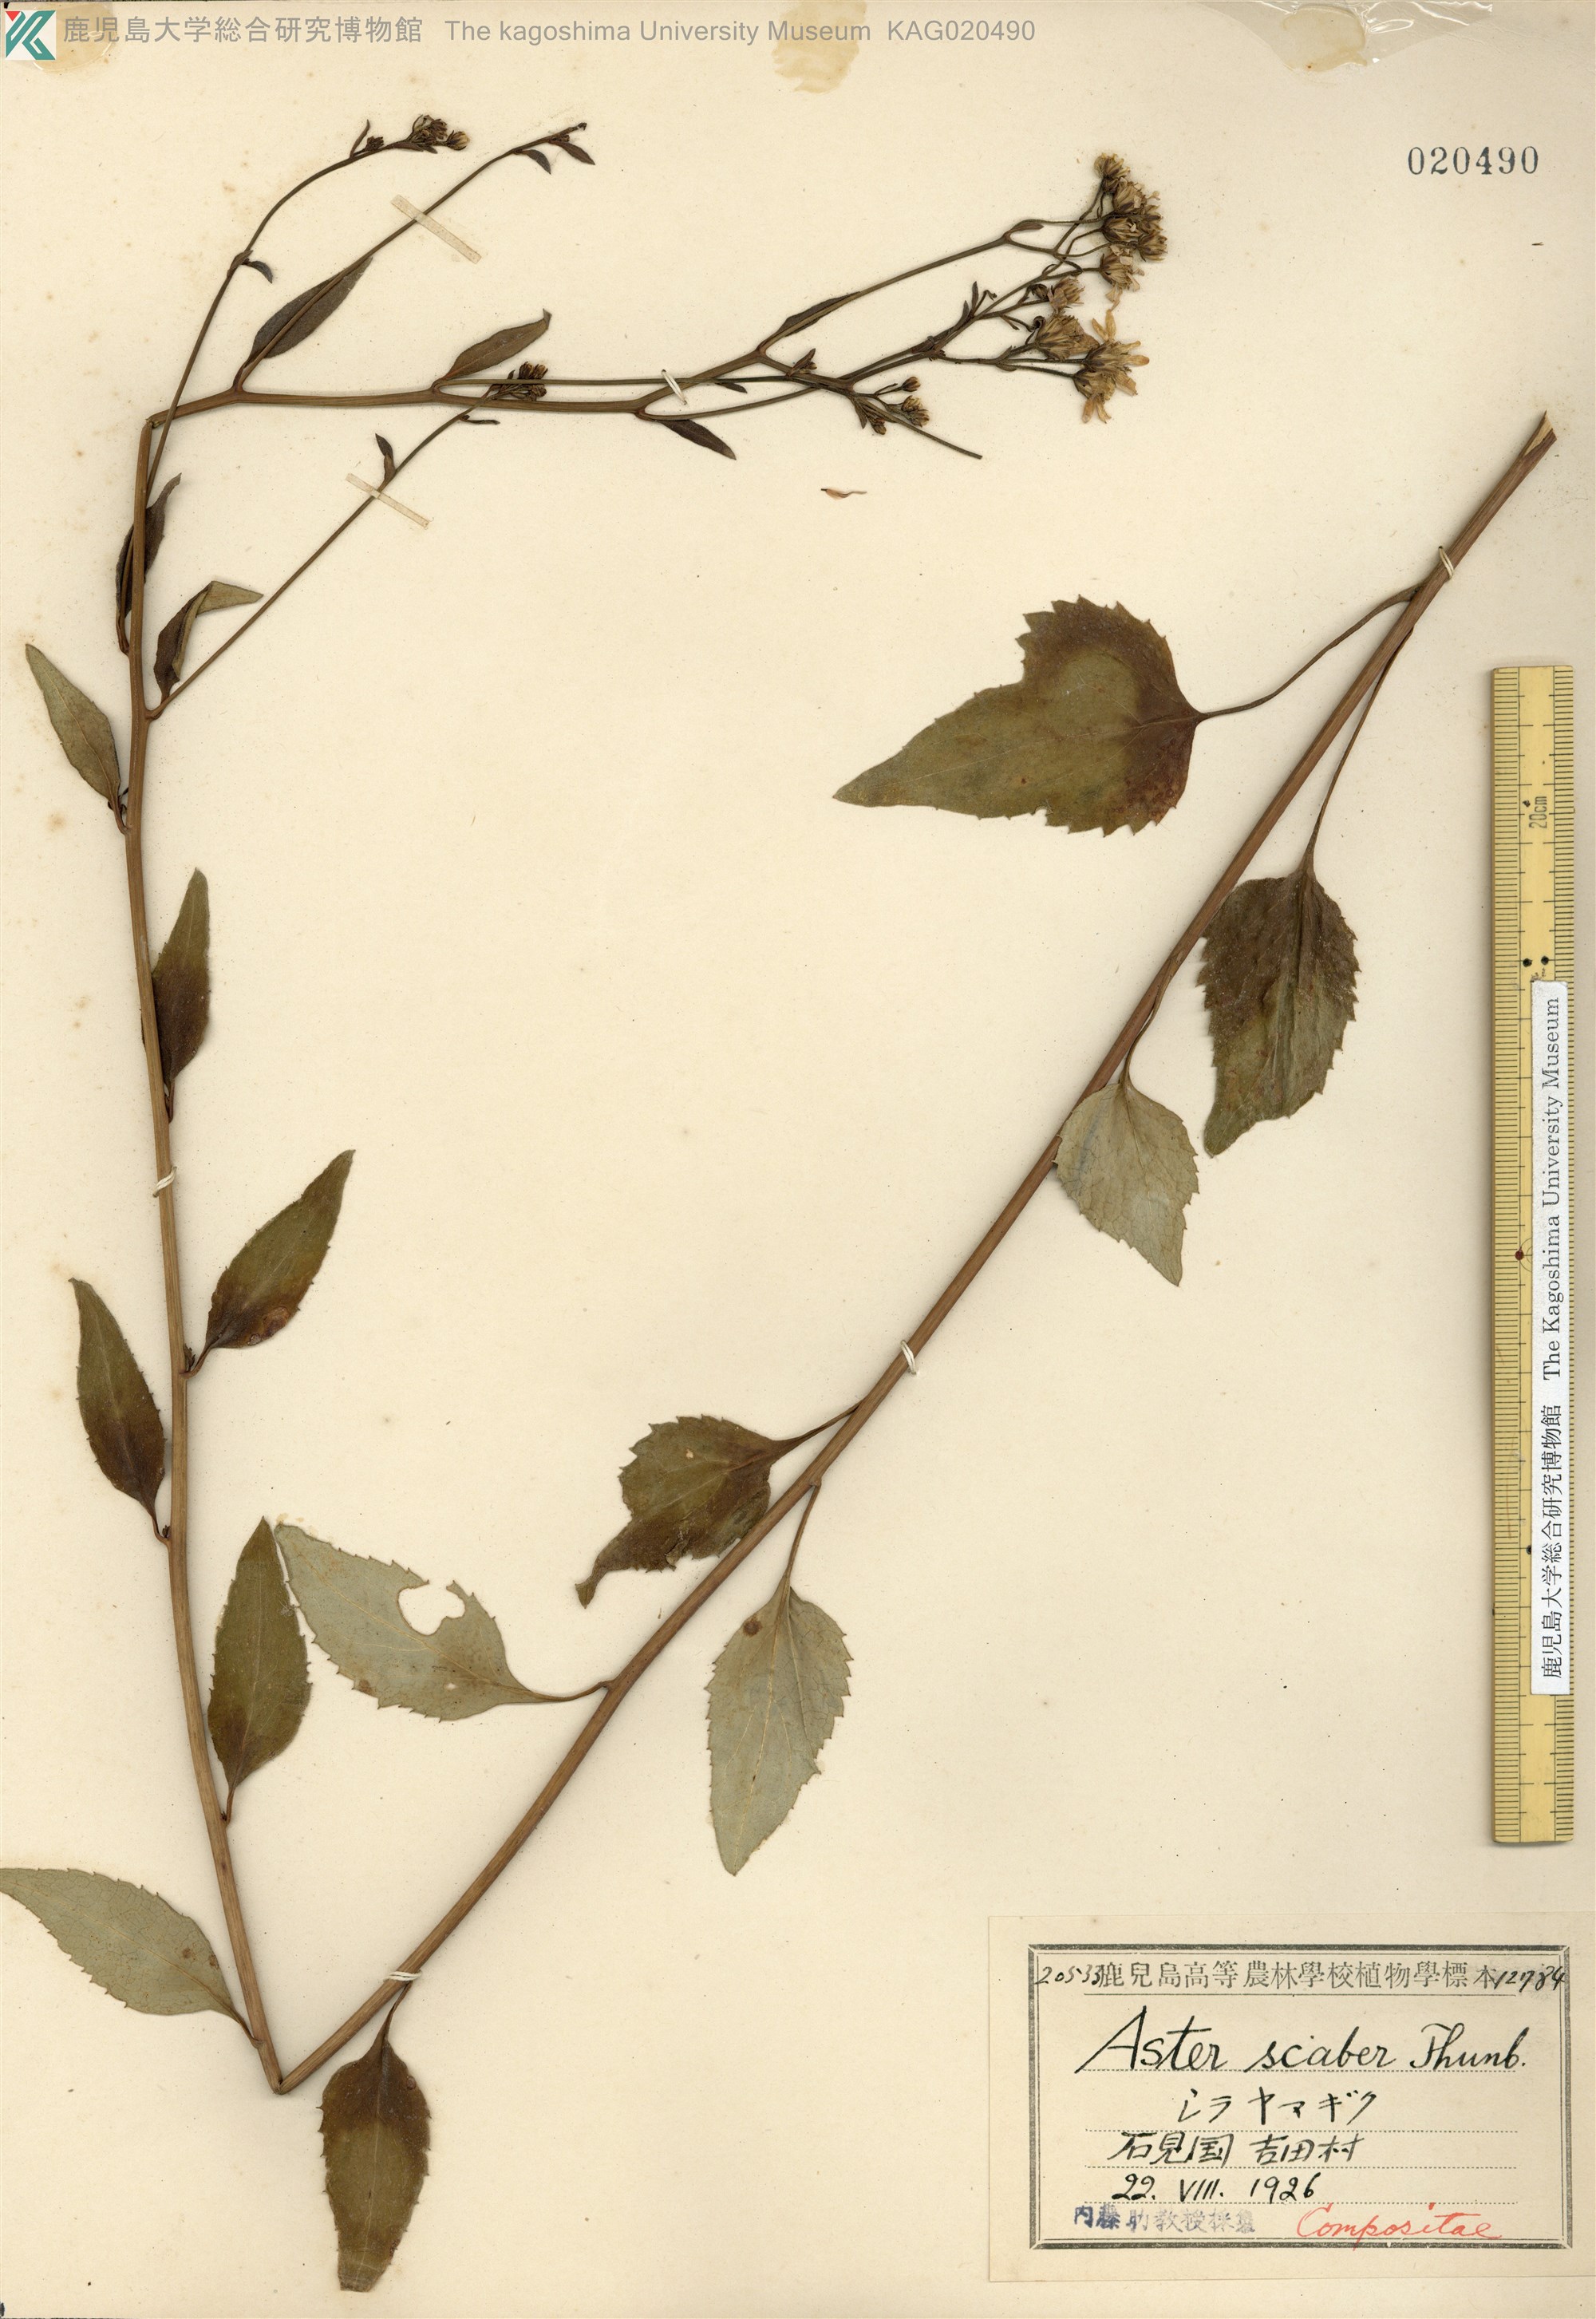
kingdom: Plantae
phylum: Tracheophyta
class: Magnoliopsida
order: Asterales
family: Asteraceae
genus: Cardiagyris
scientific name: Cardiagyris scabra
